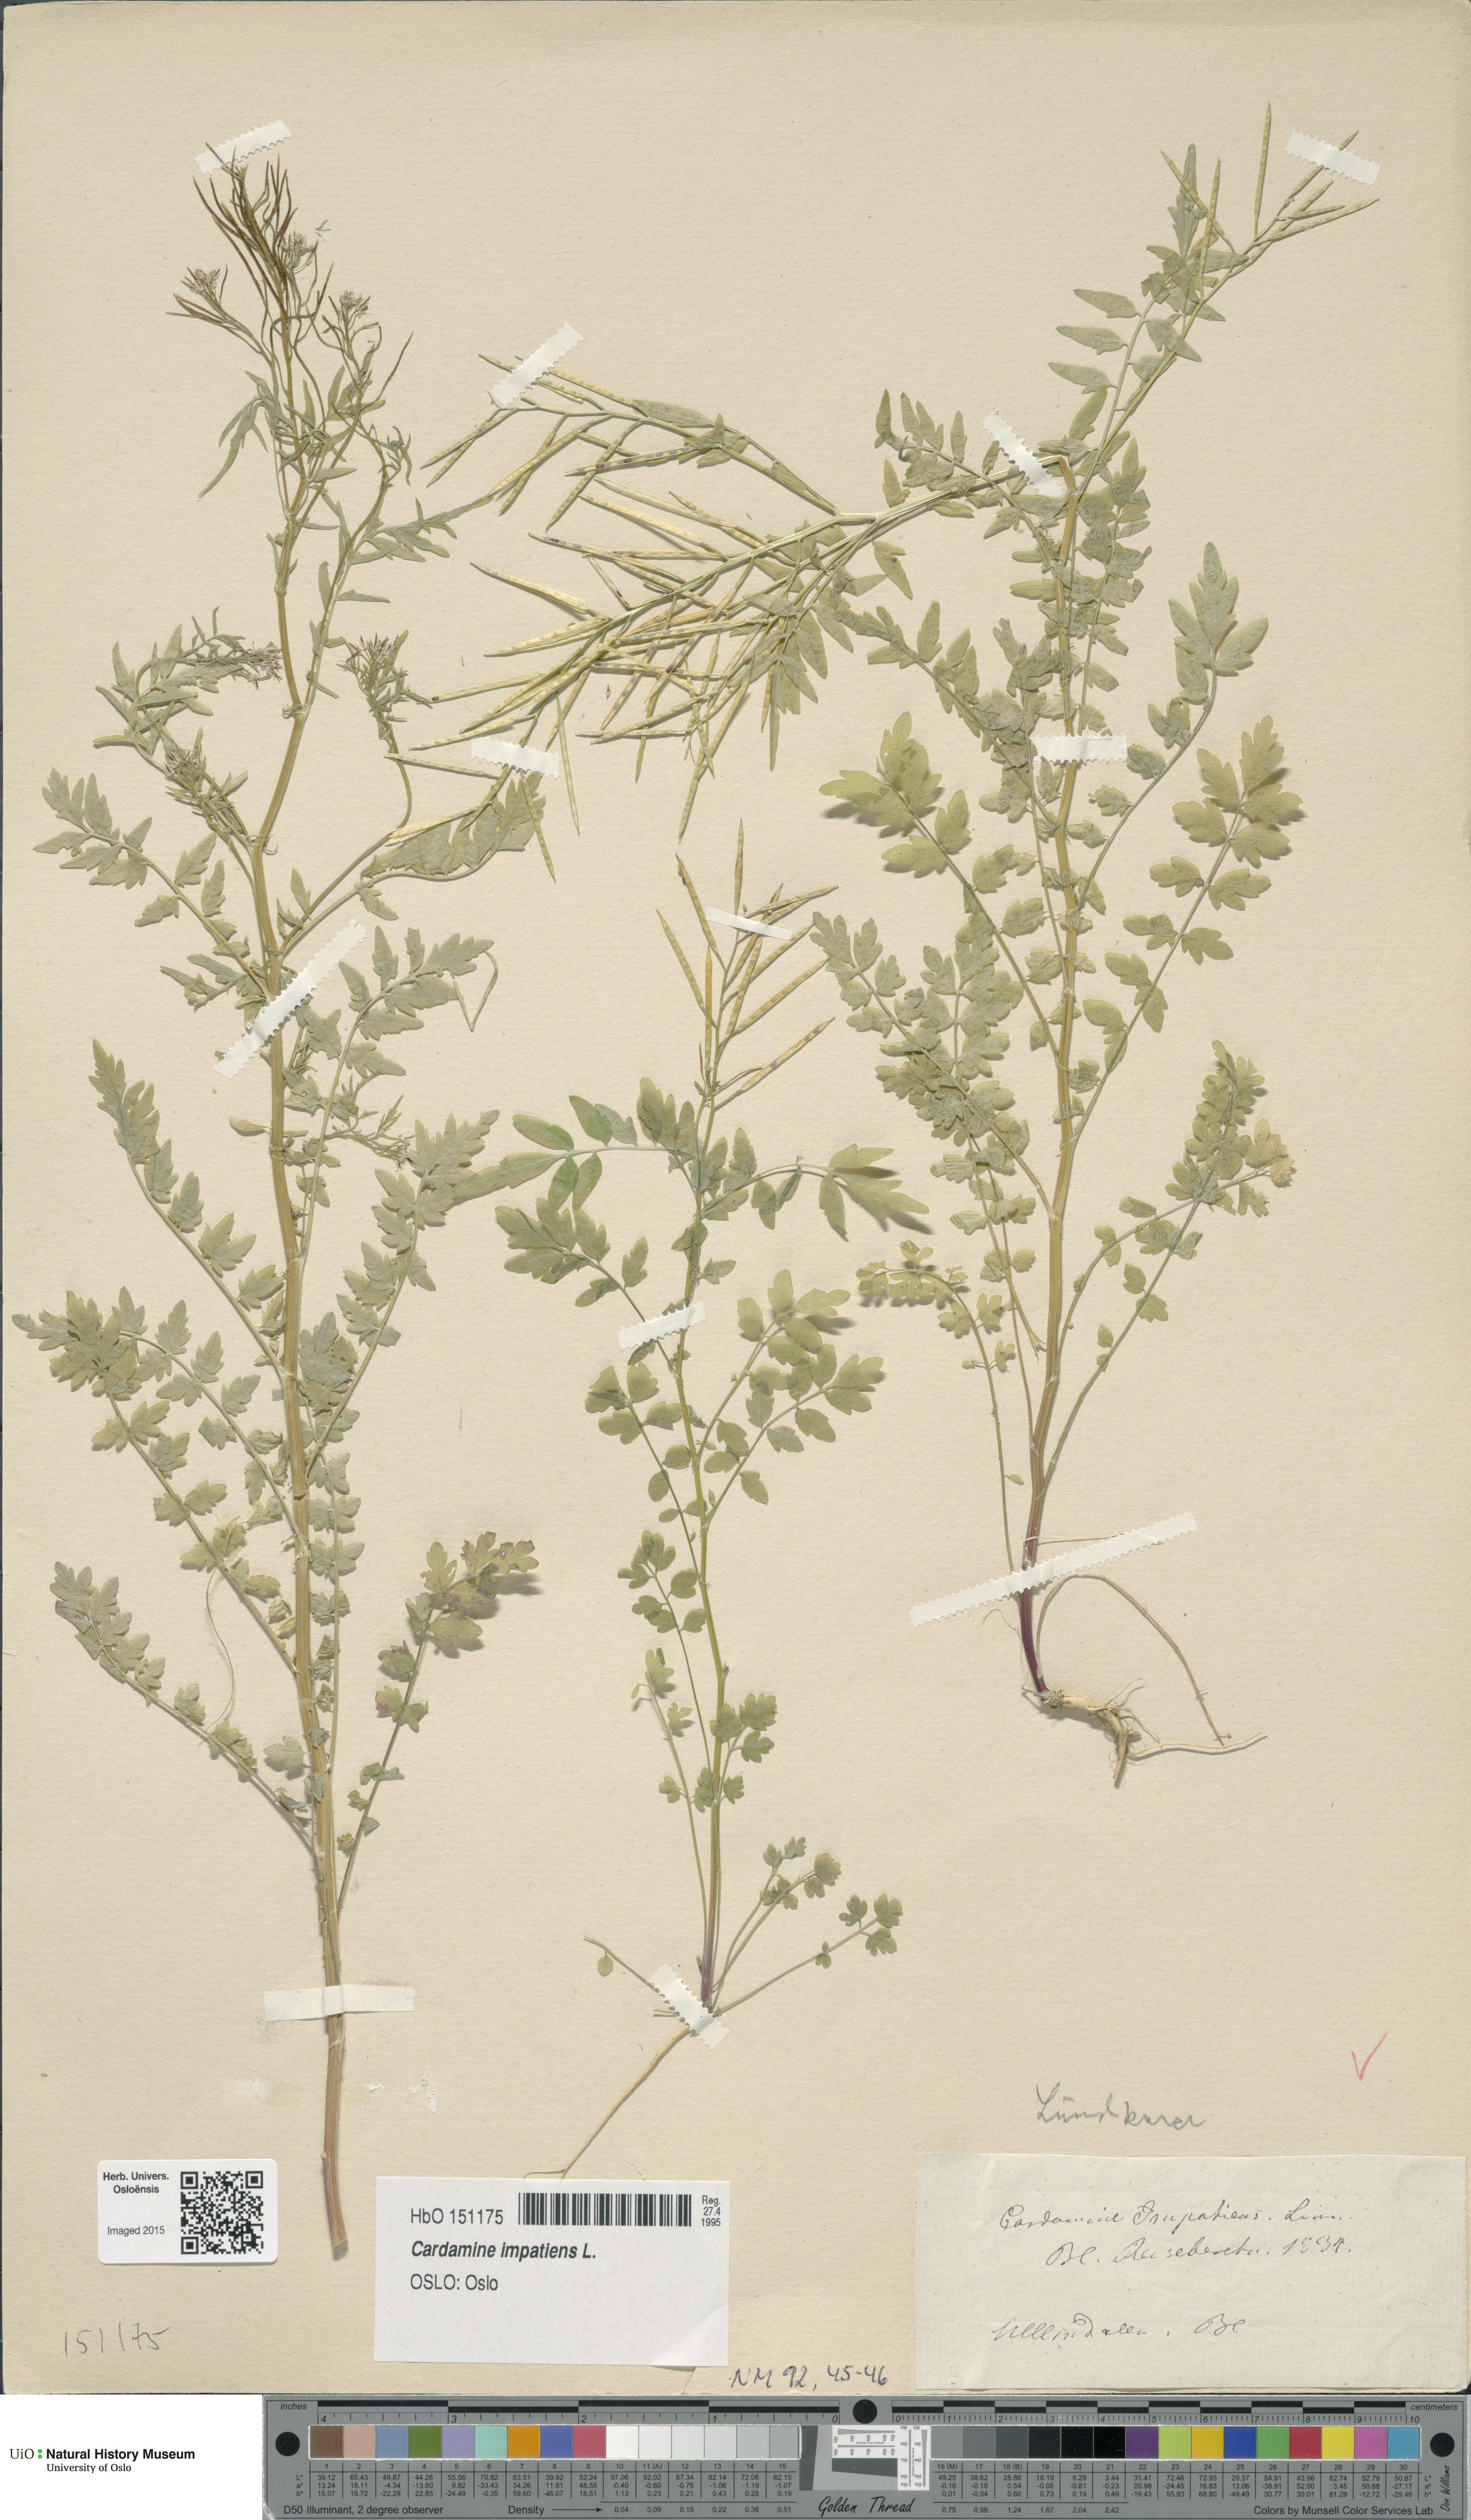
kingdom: Plantae
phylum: Tracheophyta
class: Magnoliopsida
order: Brassicales
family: Brassicaceae
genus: Cardamine
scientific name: Cardamine impatiens
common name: Narrow-leaved bitter-cress
